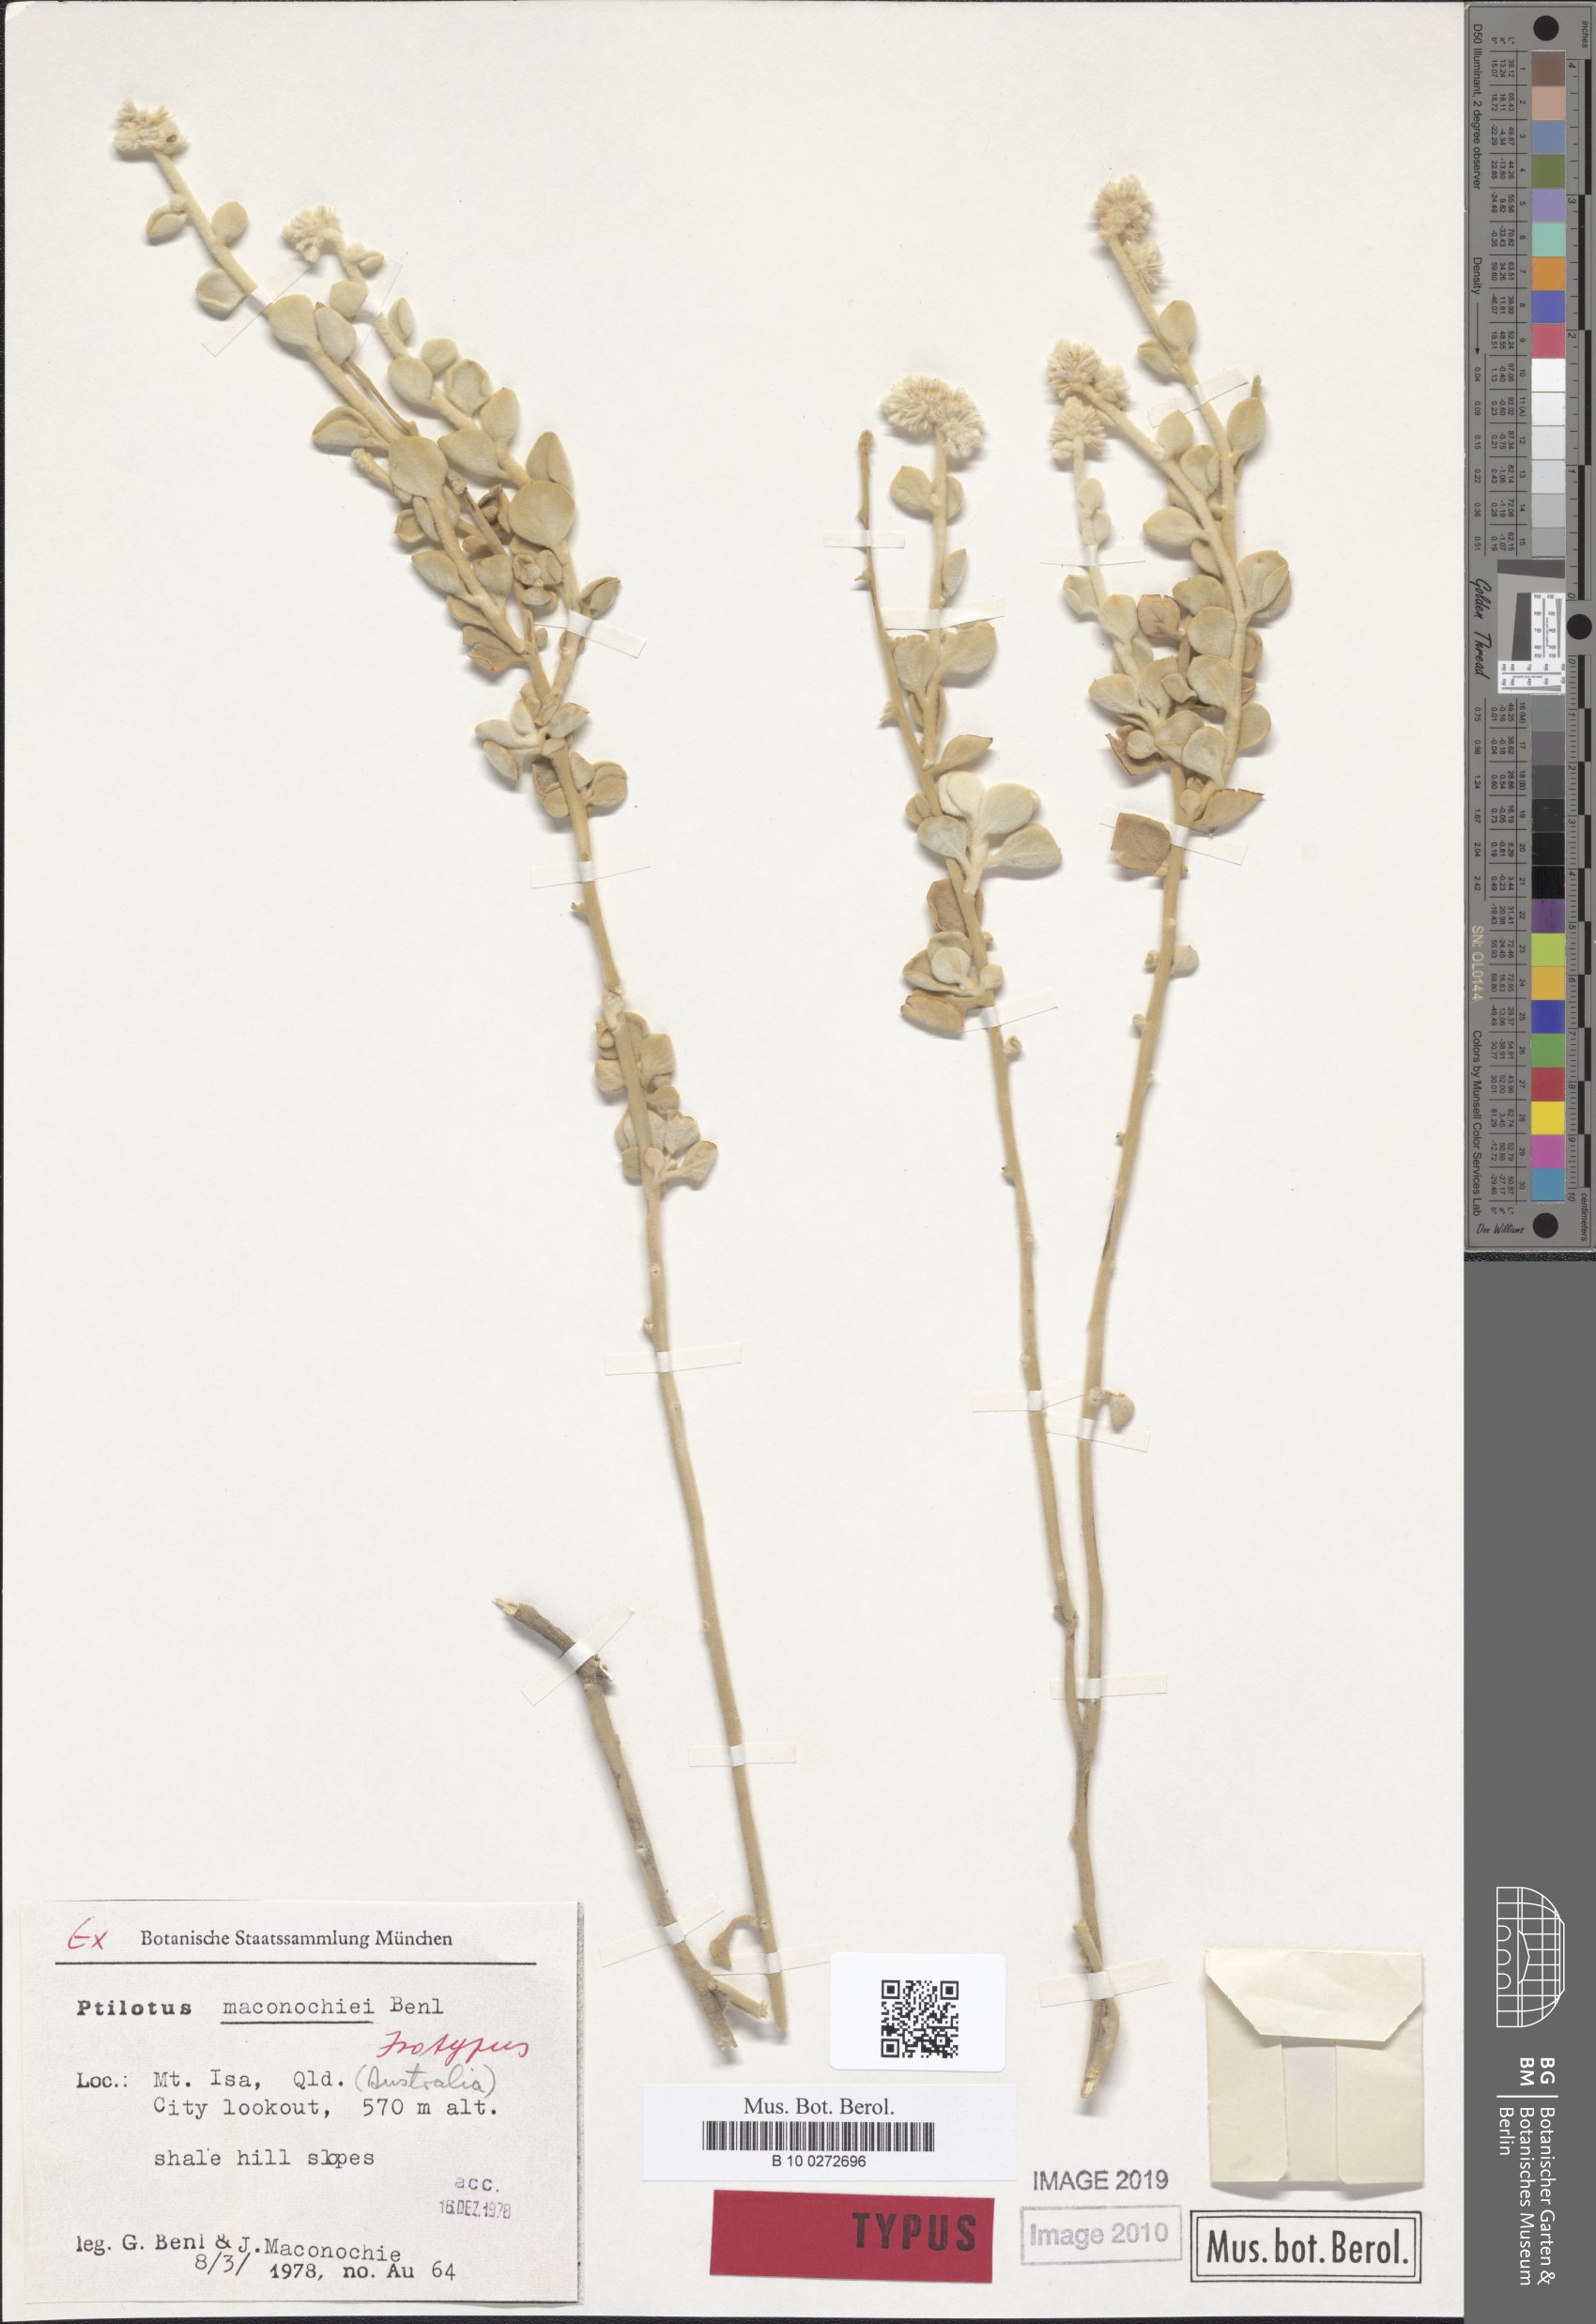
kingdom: Plantae
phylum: Tracheophyta
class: Magnoliopsida
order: Caryophyllales
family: Amaranthaceae
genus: Ptilotus
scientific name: Ptilotus maconochiei
